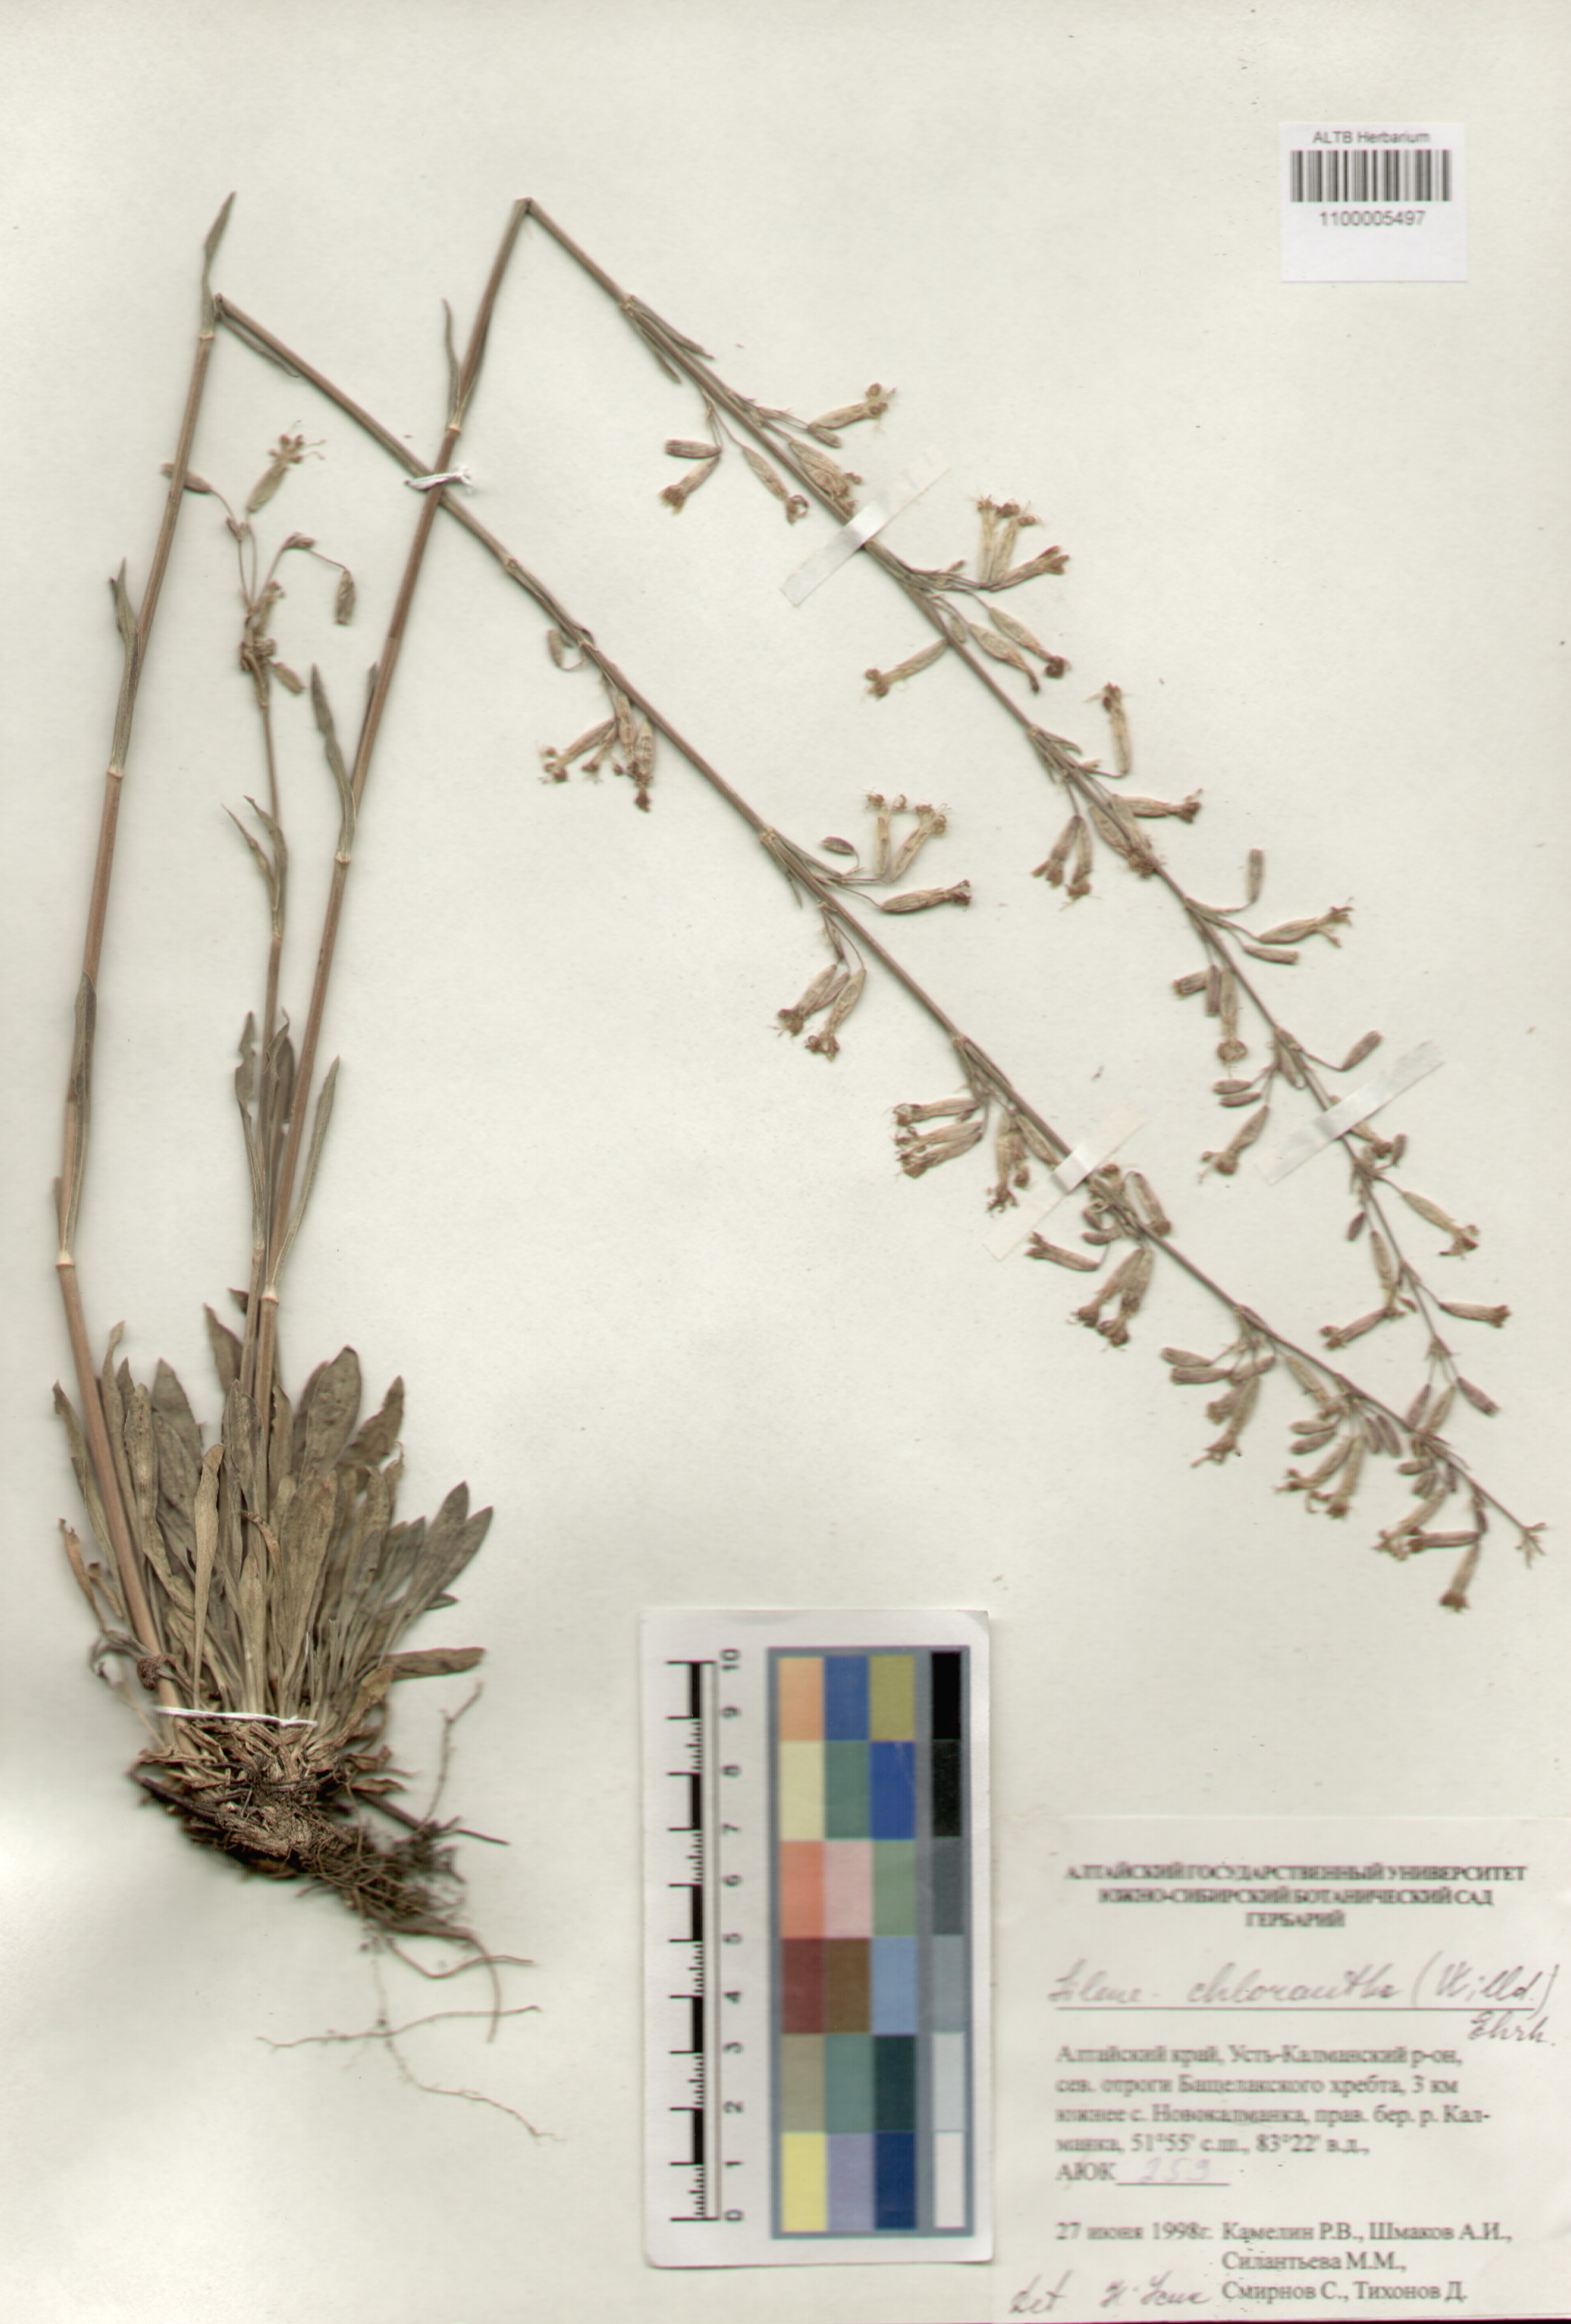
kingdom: Plantae
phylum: Tracheophyta
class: Magnoliopsida
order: Caryophyllales
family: Caryophyllaceae
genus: Silene
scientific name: Silene chlorantha
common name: Yellowgreen catchfly
